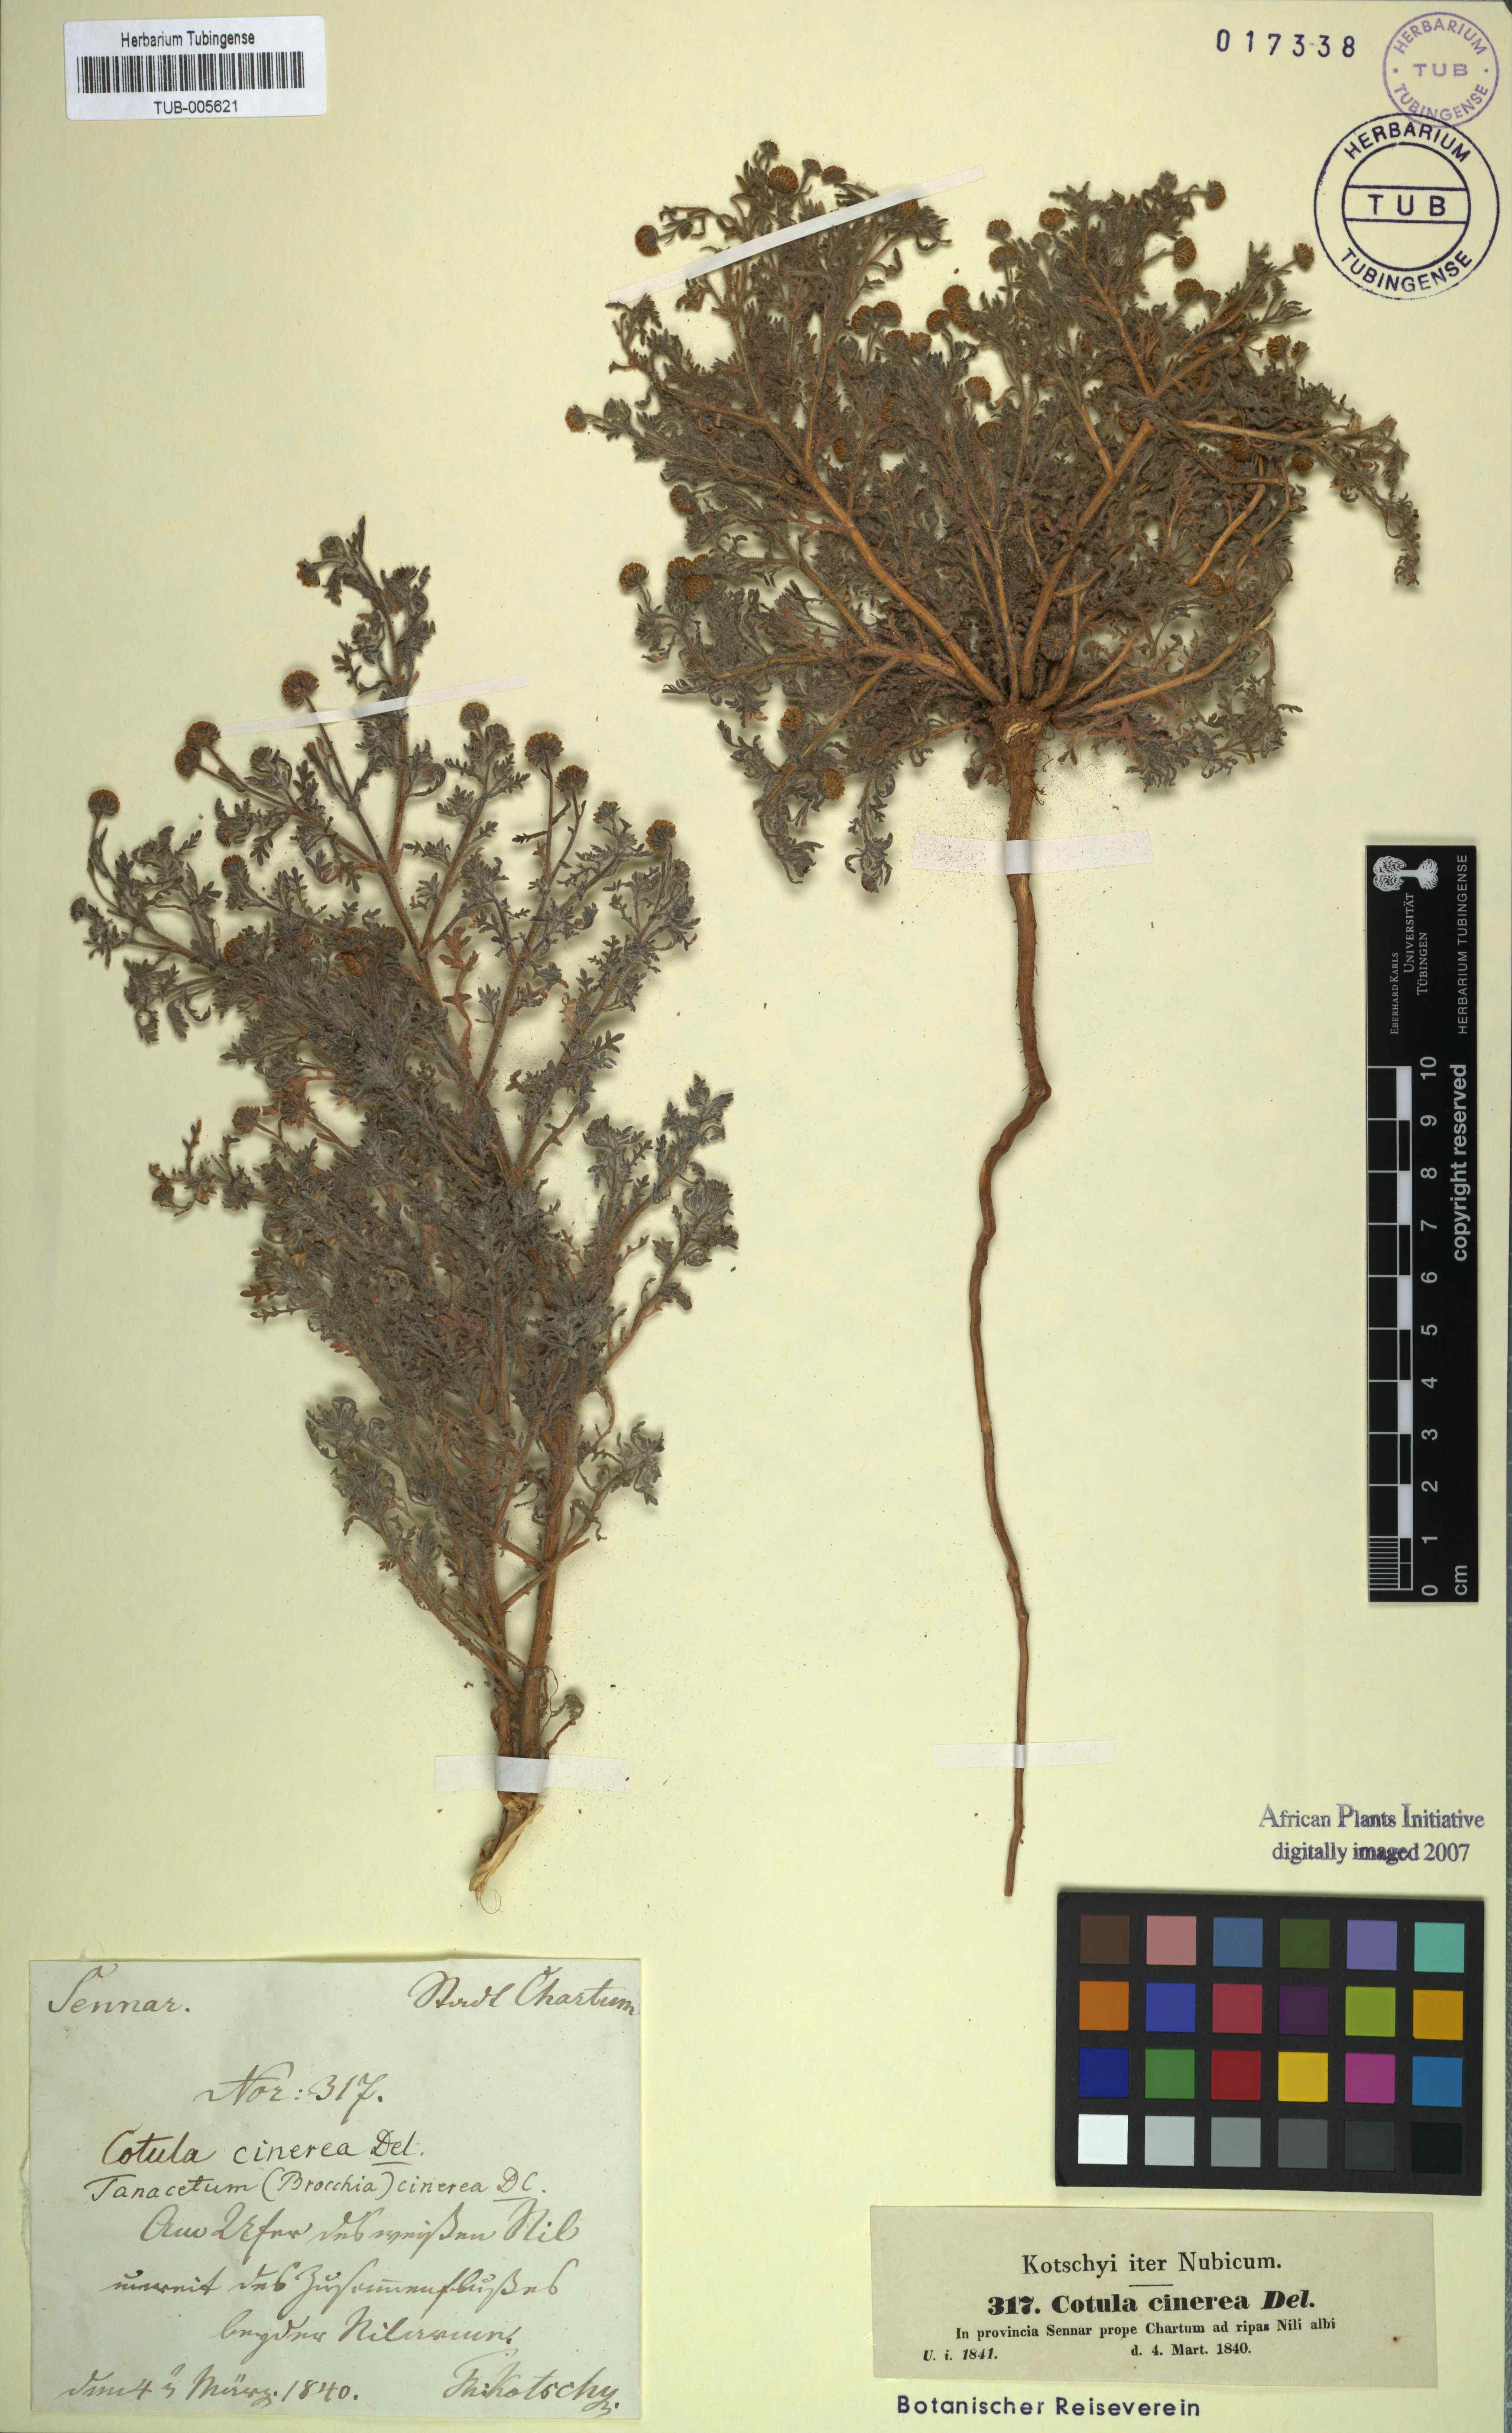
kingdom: Plantae
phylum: Tracheophyta
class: Magnoliopsida
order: Asterales
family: Asteraceae
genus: Brocchia
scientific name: Brocchia cinerea
